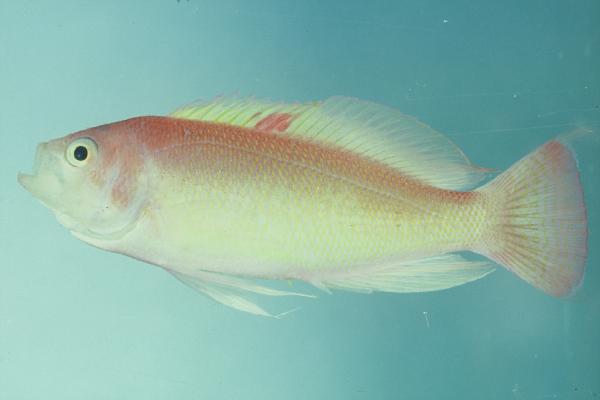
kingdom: Animalia
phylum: Chordata
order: Perciformes
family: Serranidae
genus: Pseudanthias
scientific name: Pseudanthias hypselosoma
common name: Pink basslet
